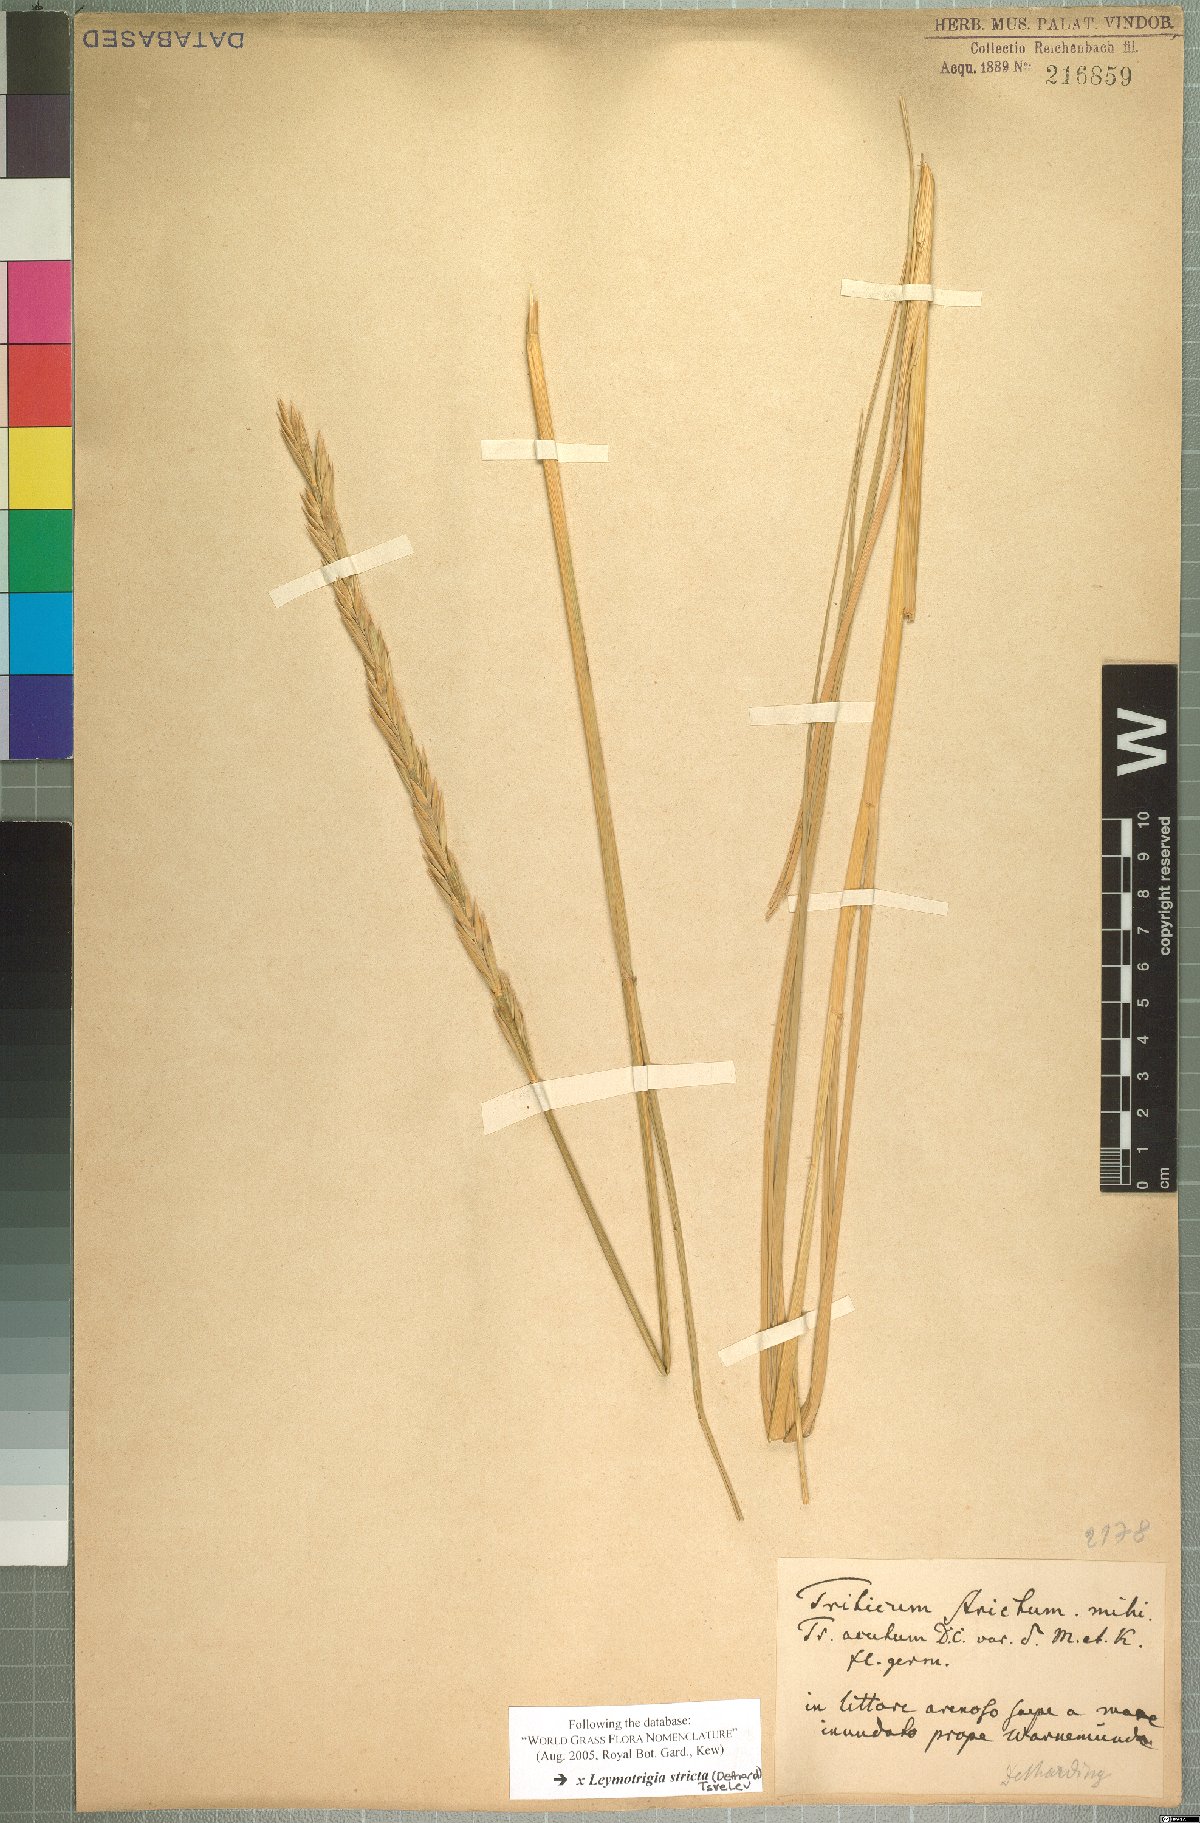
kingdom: Plantae
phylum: Tracheophyta
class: Liliopsida
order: Poales
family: Poaceae
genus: Elyleymus
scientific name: Elyleymus strictus
